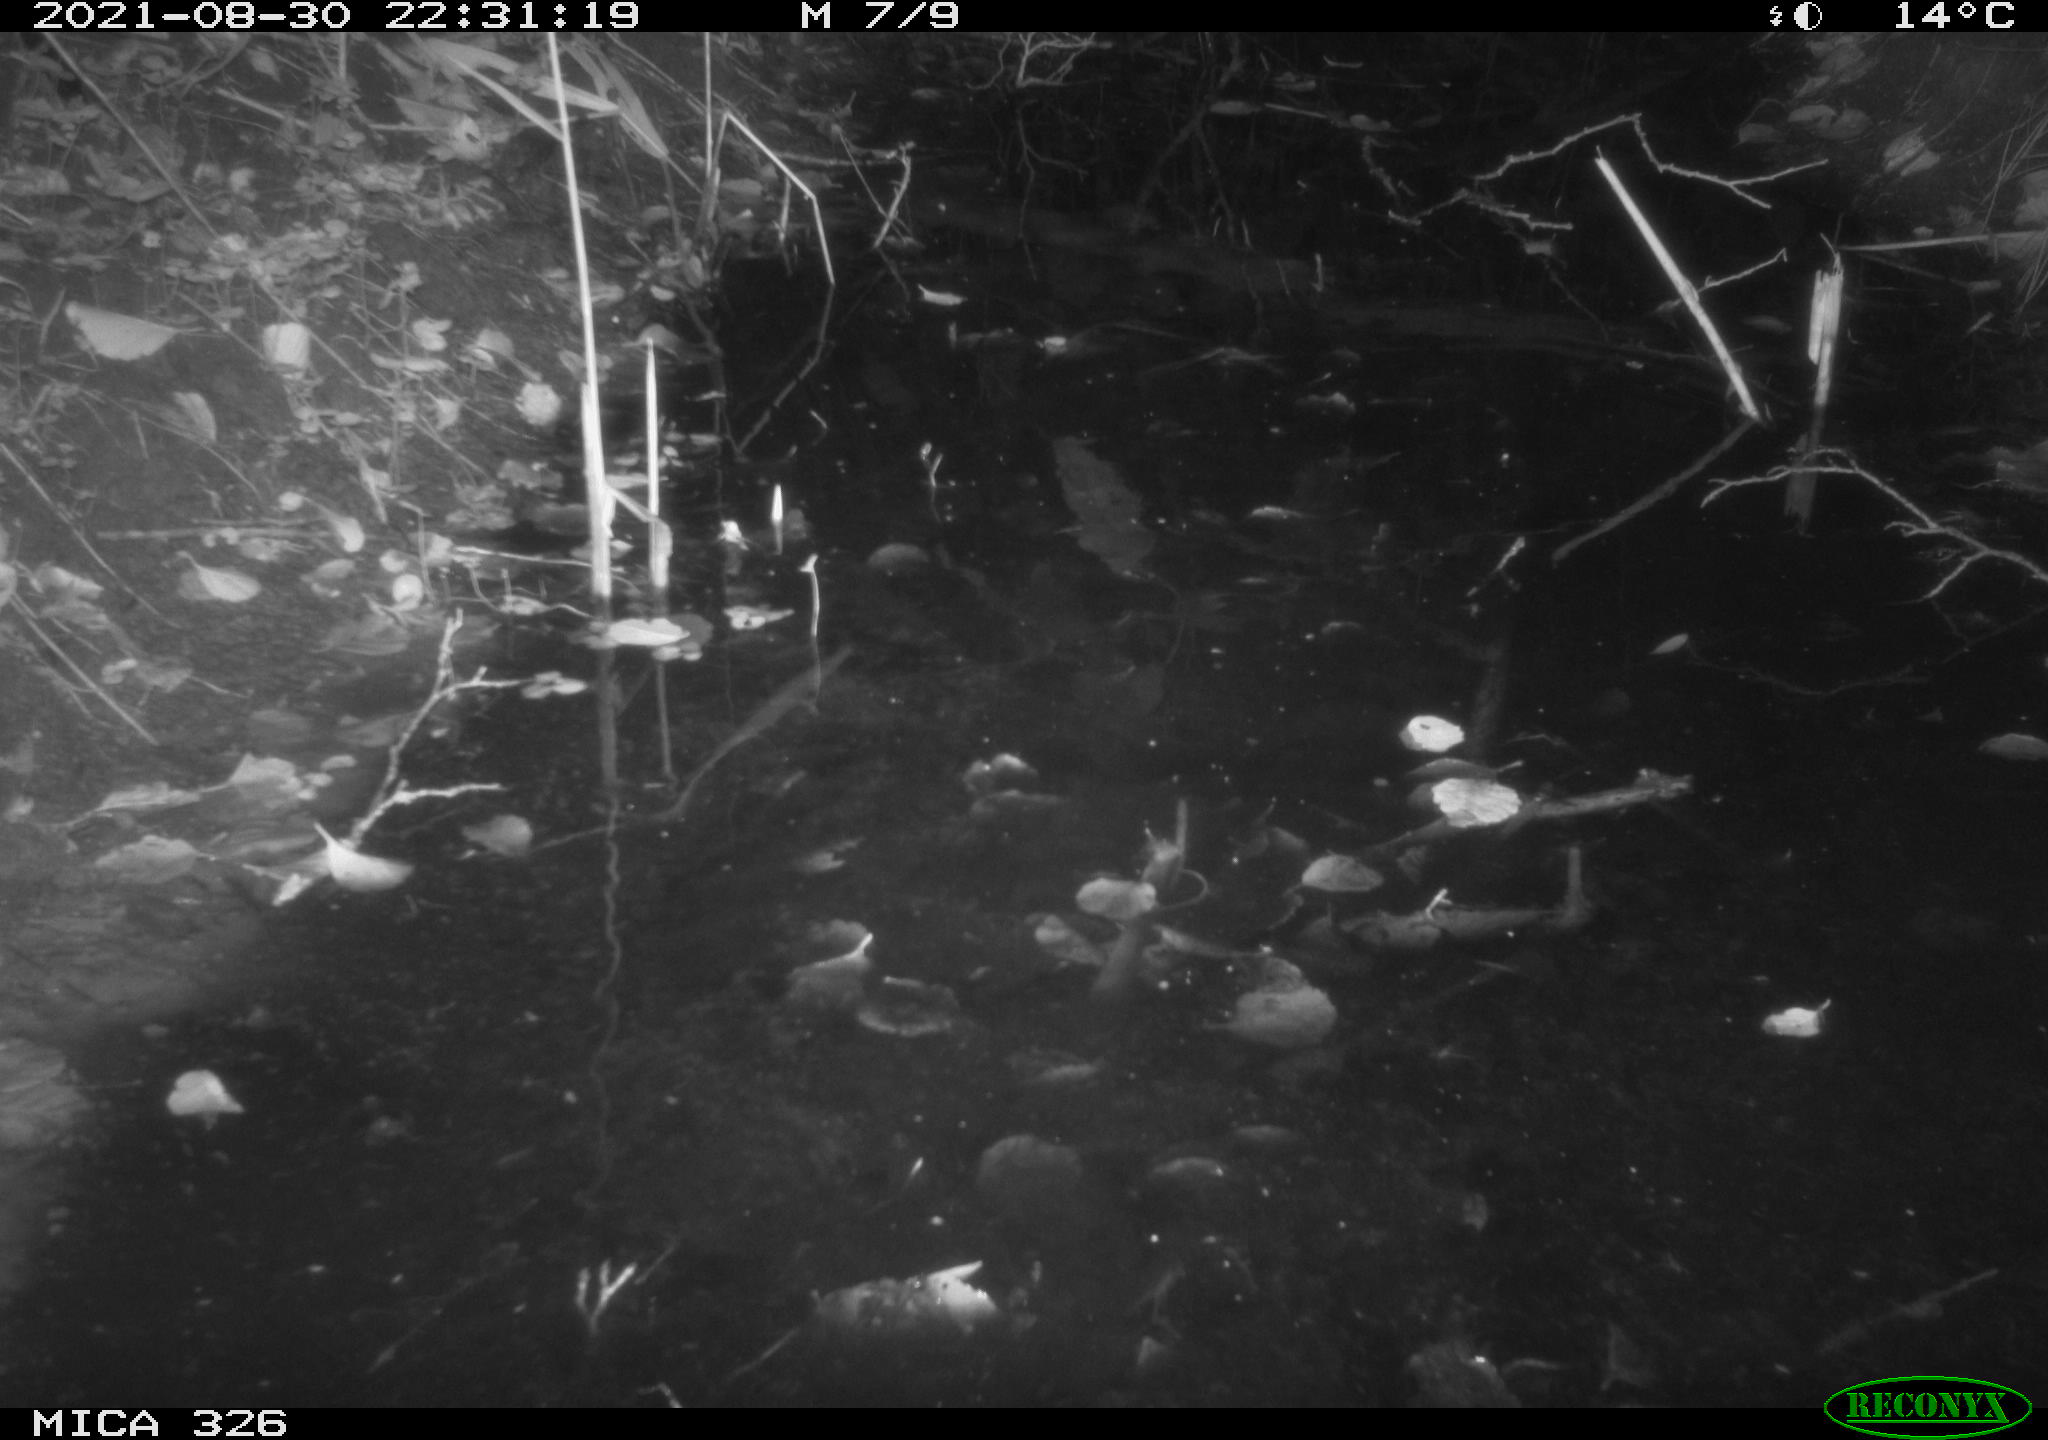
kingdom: Animalia
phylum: Chordata
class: Mammalia
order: Rodentia
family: Myocastoridae
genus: Myocastor
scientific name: Myocastor coypus
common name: Coypu
